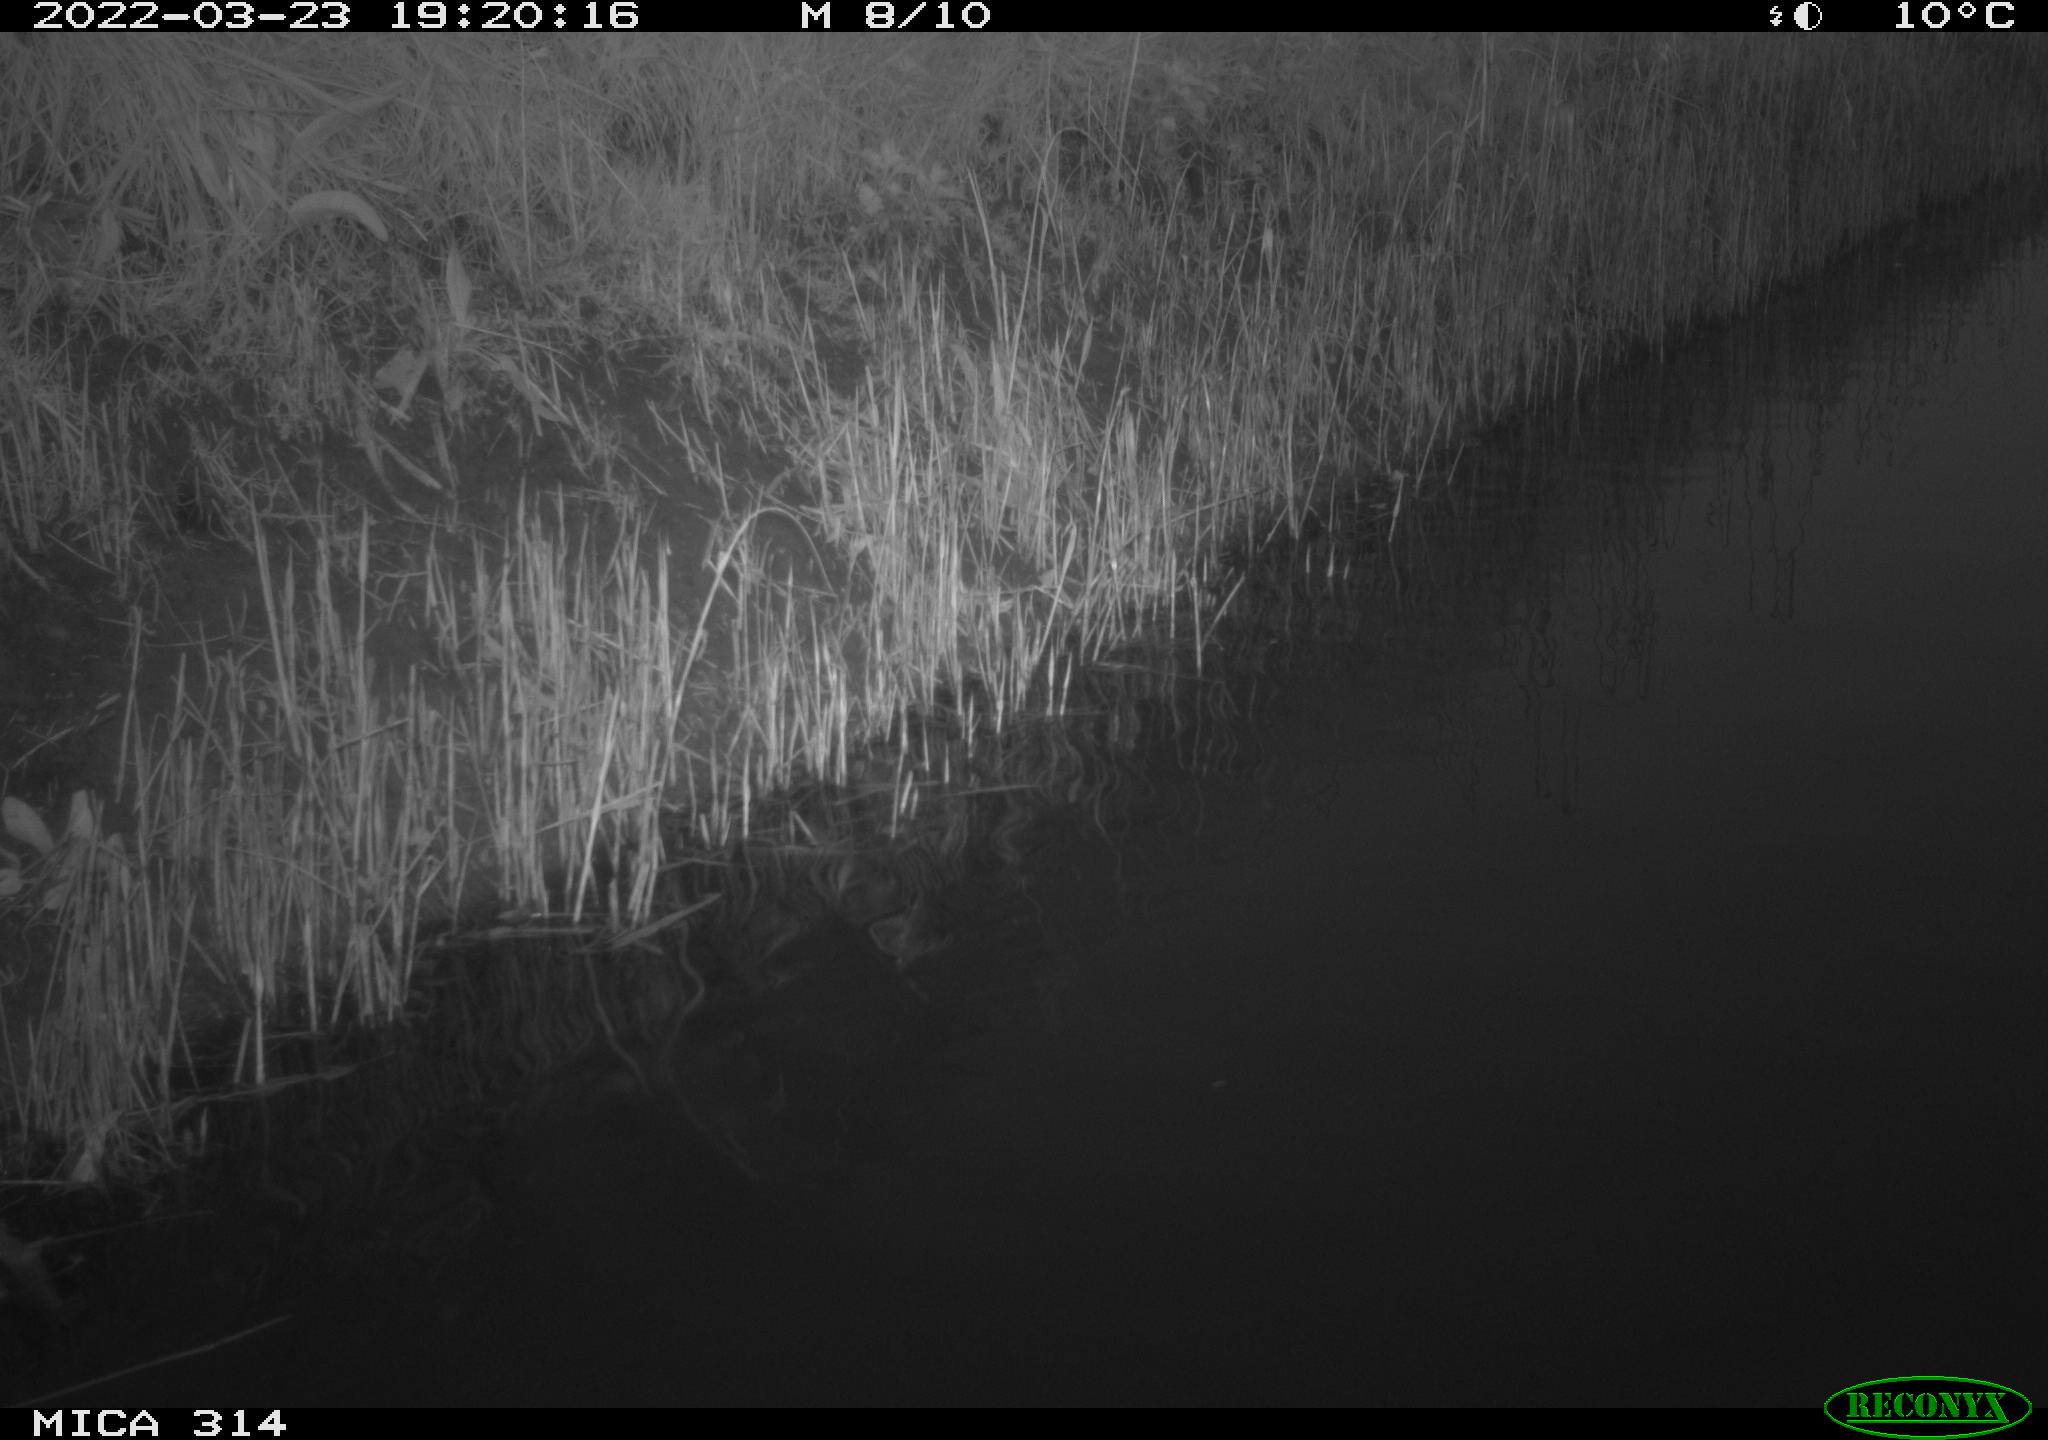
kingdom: Animalia
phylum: Chordata
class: Aves
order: Gruiformes
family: Rallidae
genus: Gallinula
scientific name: Gallinula chloropus
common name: Common moorhen
